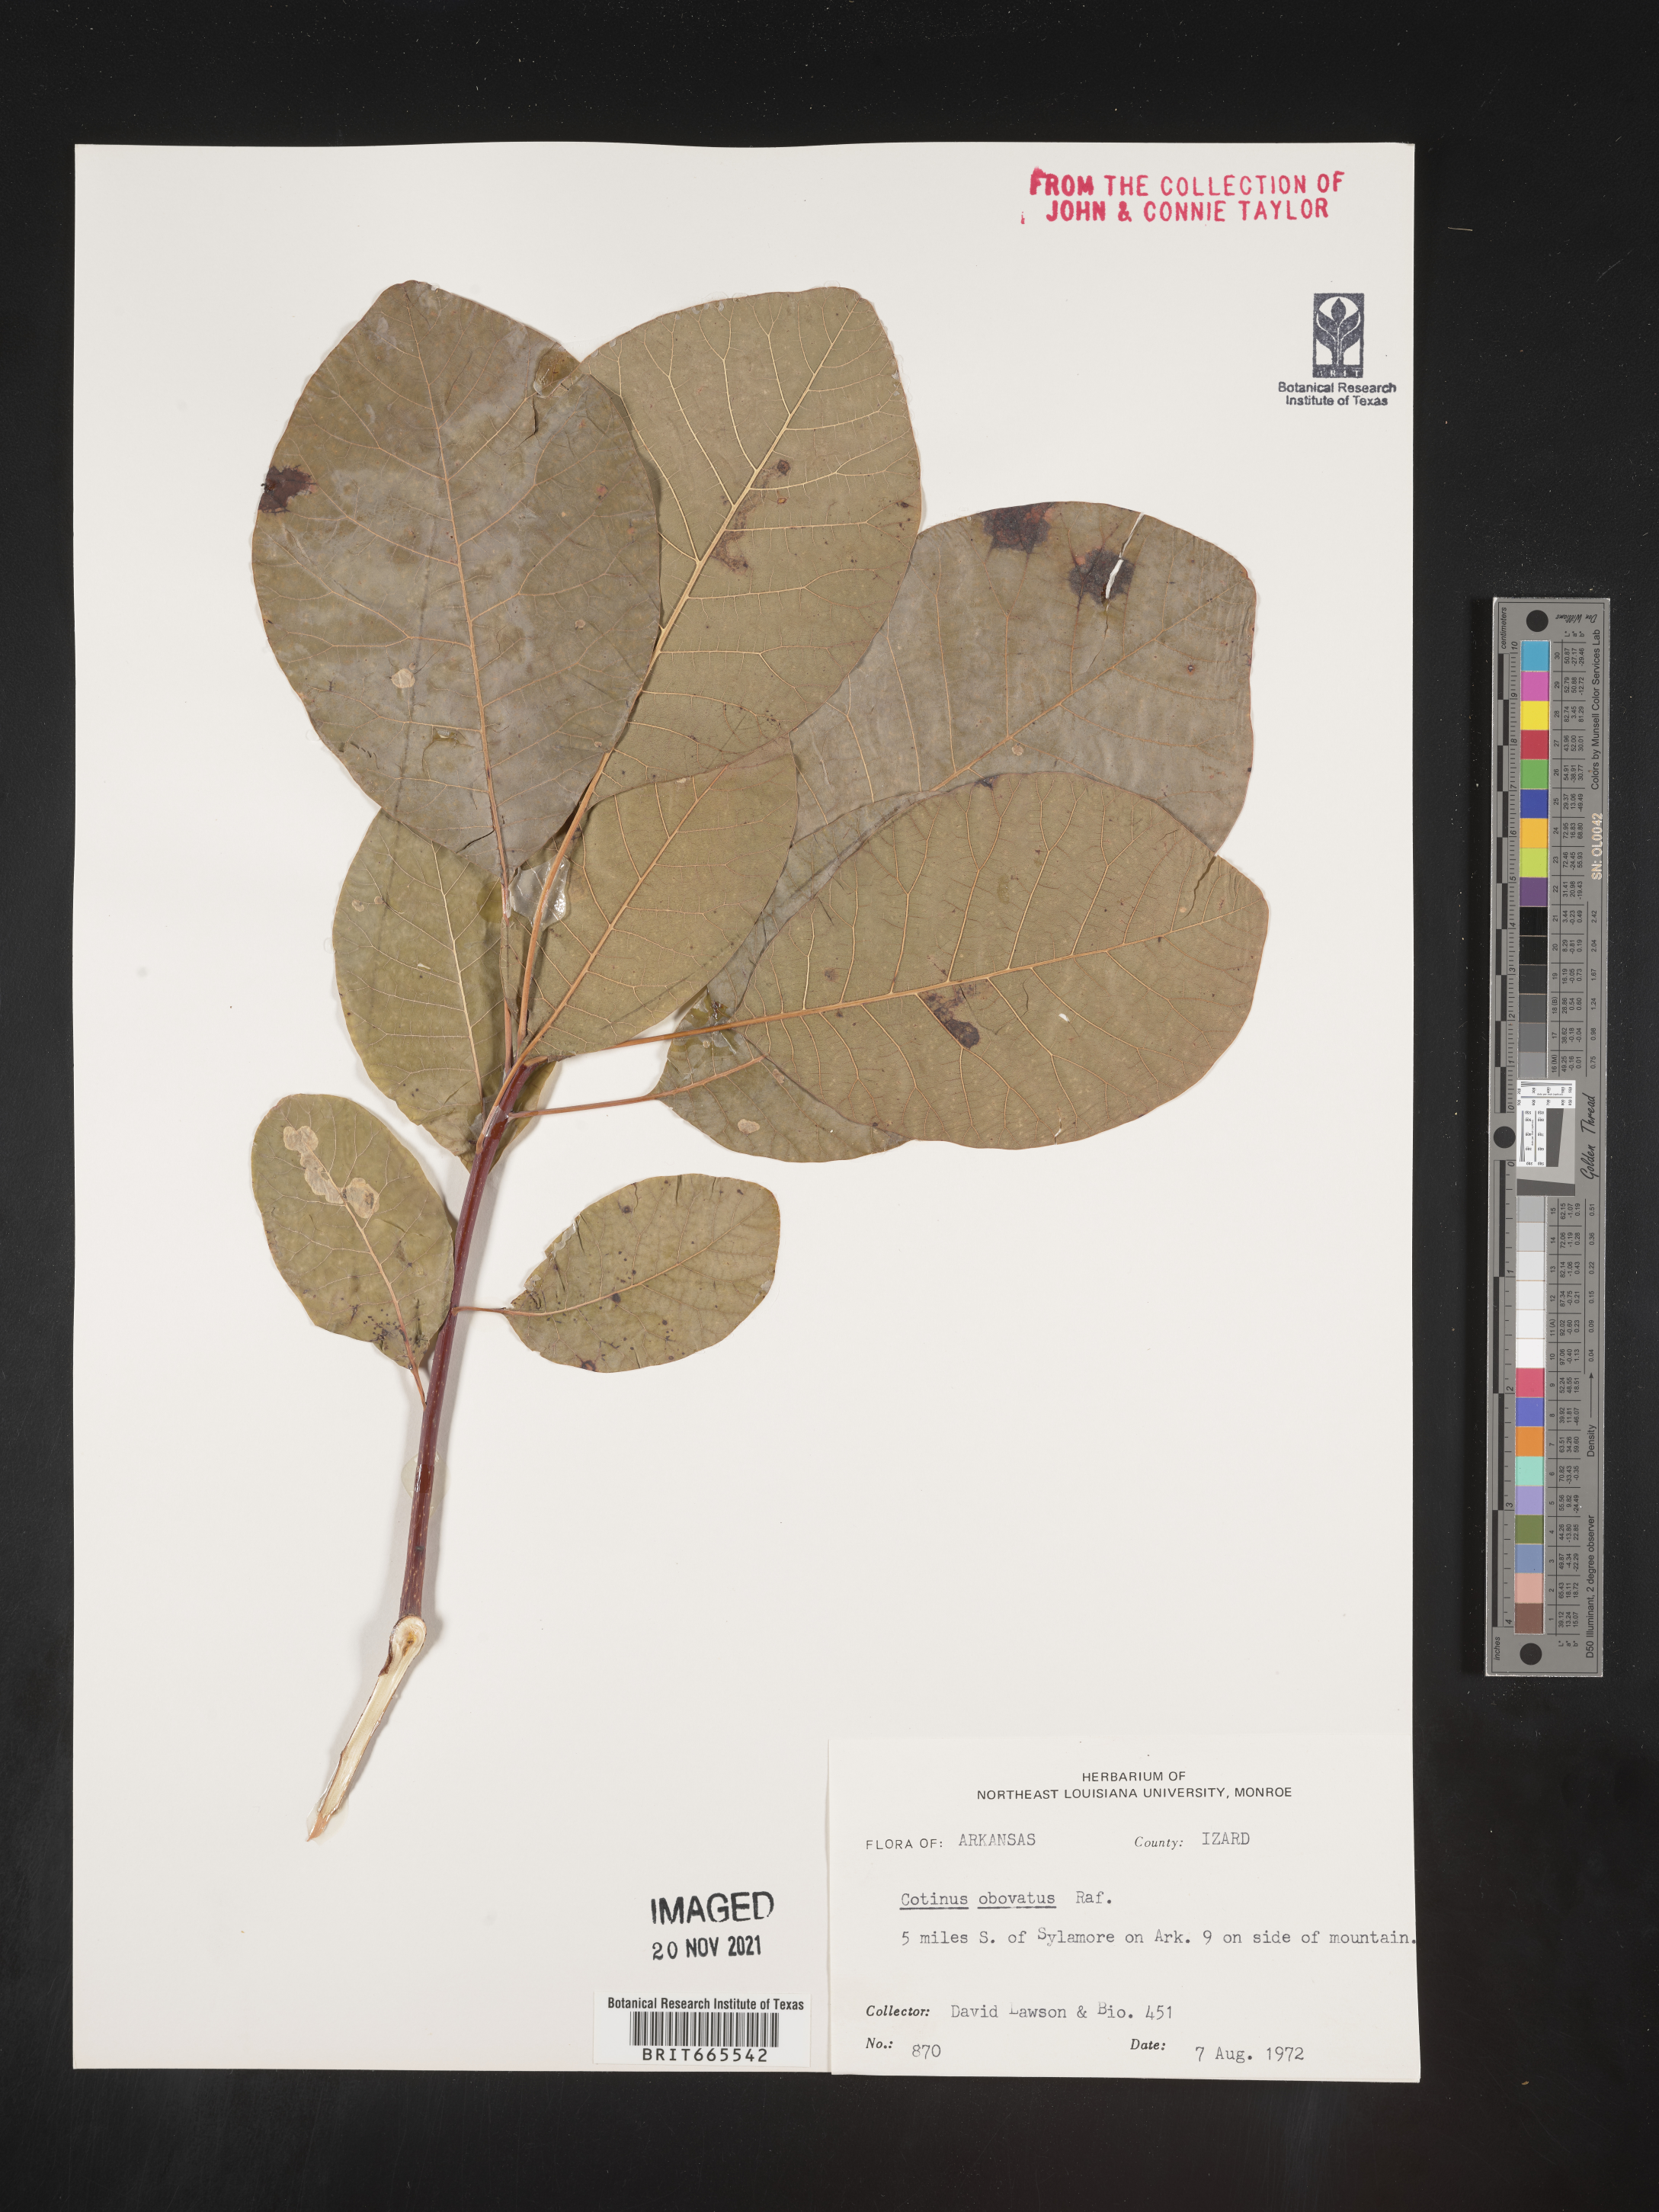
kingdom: Plantae
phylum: Tracheophyta
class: Magnoliopsida
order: Sapindales
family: Anacardiaceae
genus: Cotinus
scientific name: Cotinus obovatus
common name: Chittamwood
